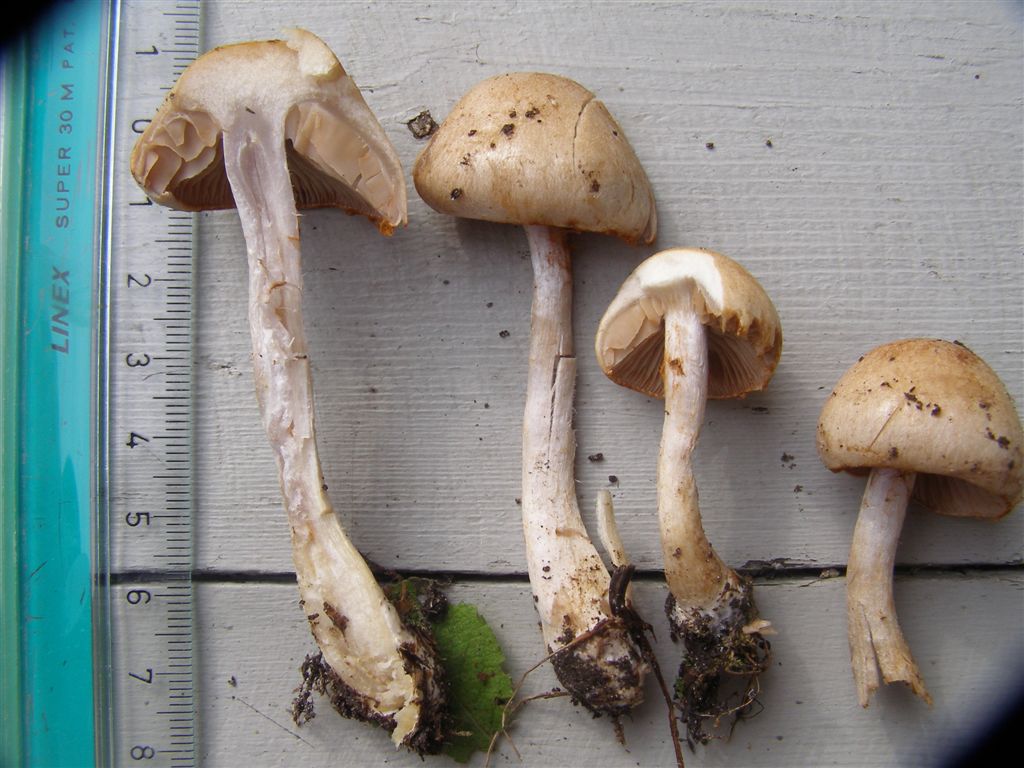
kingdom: Fungi
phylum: Basidiomycota
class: Agaricomycetes
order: Agaricales
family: Cortinariaceae
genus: Cortinarius
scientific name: Cortinarius tabularis
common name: lerbrun slørhat
